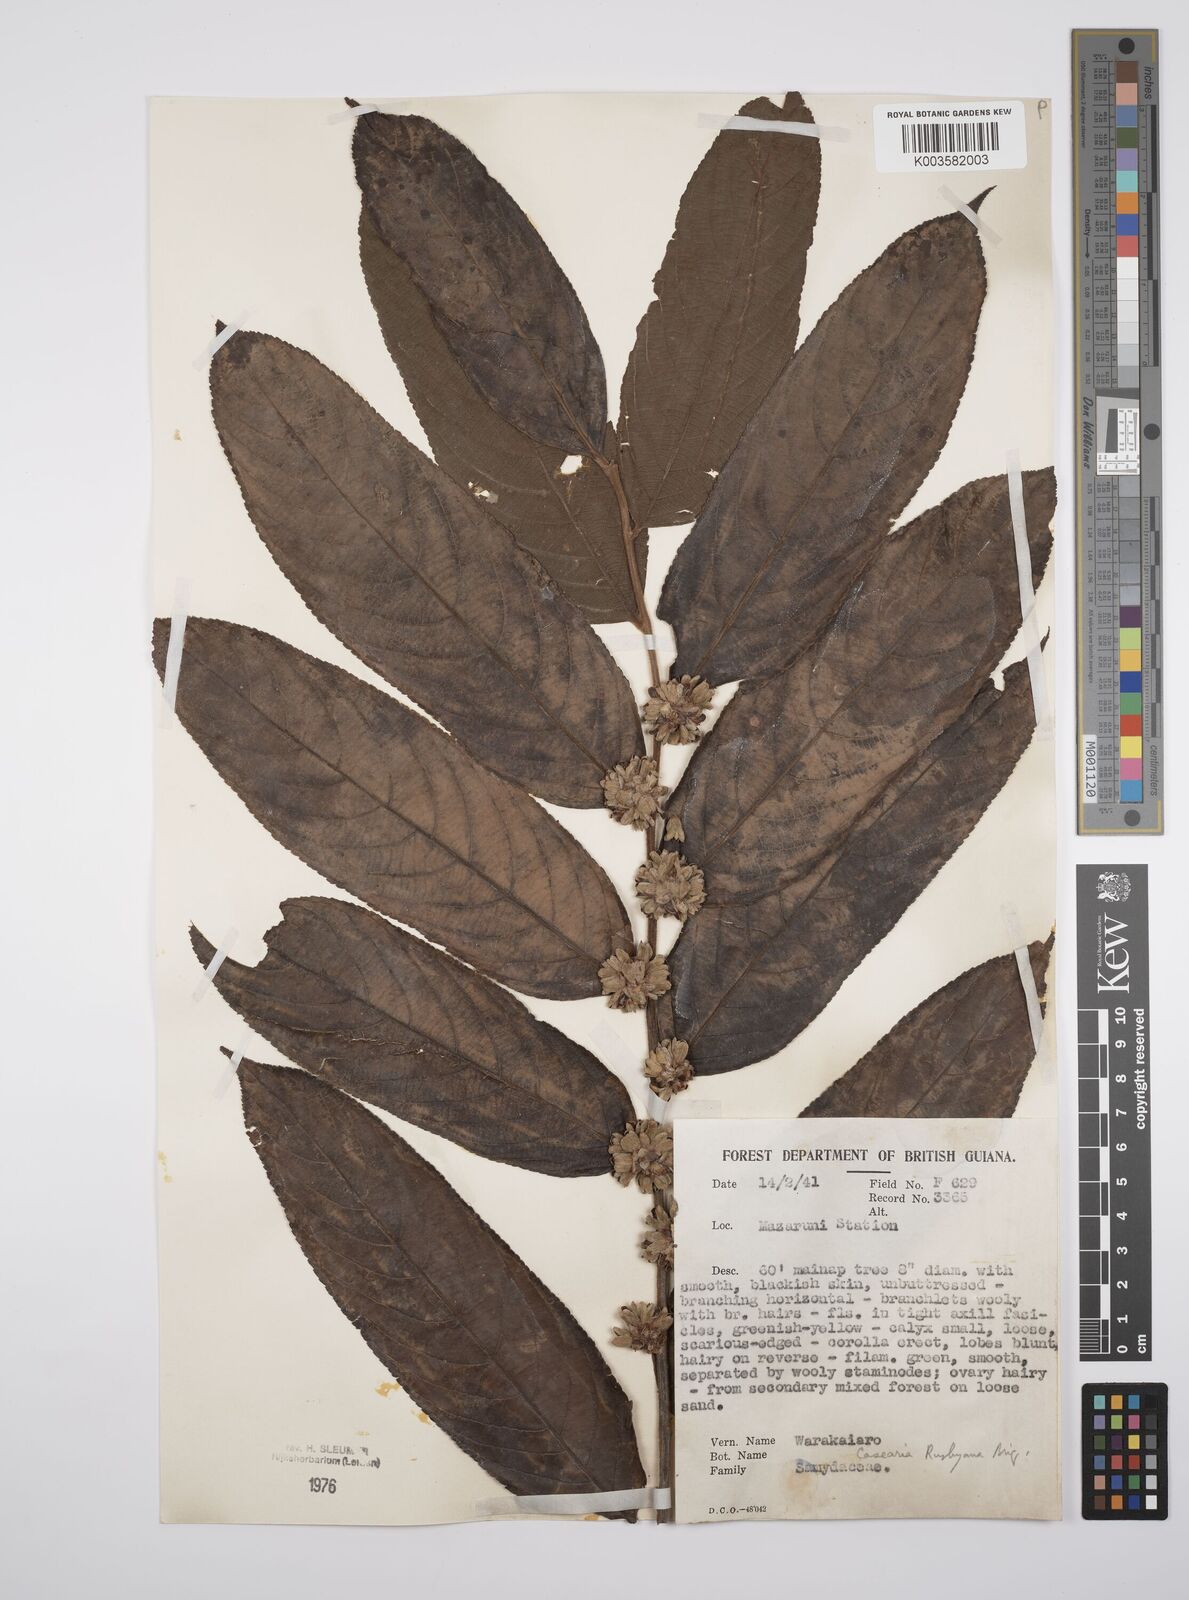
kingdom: Plantae
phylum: Tracheophyta
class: Magnoliopsida
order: Malpighiales
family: Salicaceae
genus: Casearia
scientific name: Casearia rusbyana
